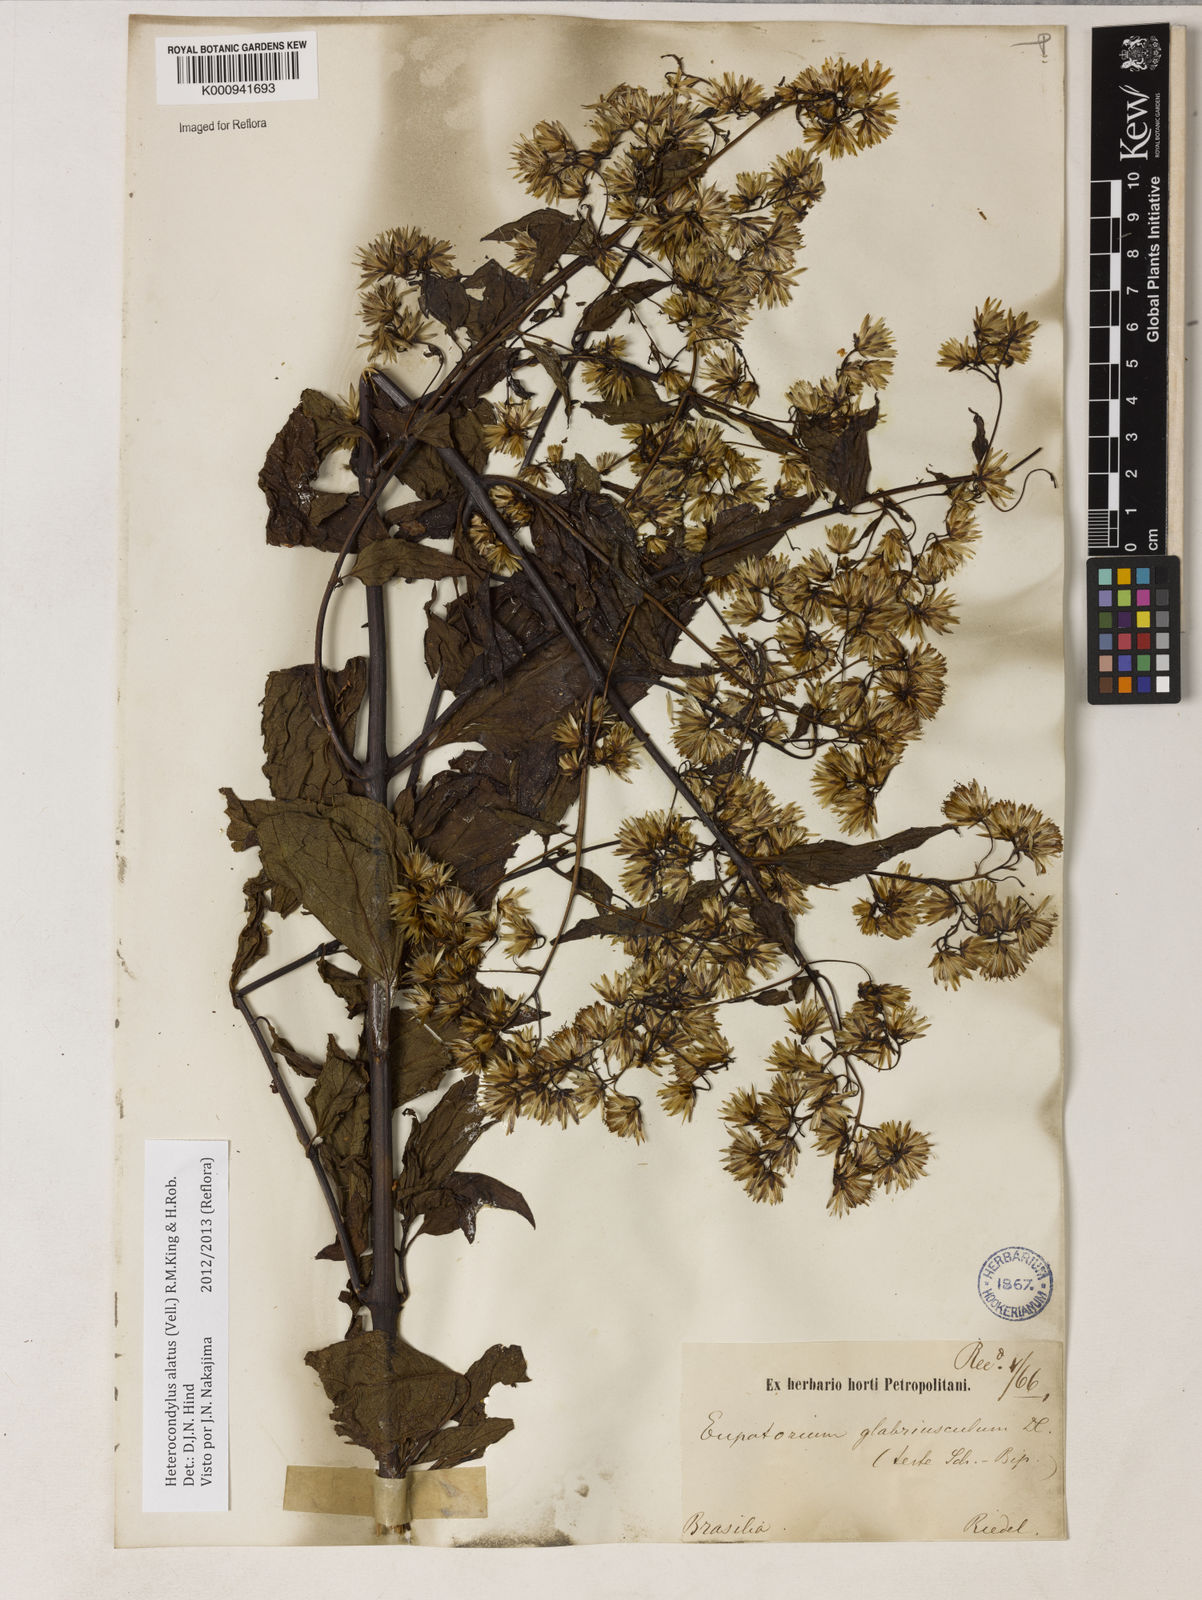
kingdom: Plantae
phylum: Tracheophyta
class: Magnoliopsida
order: Asterales
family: Asteraceae
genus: Heterocondylus
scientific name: Heterocondylus alatus
